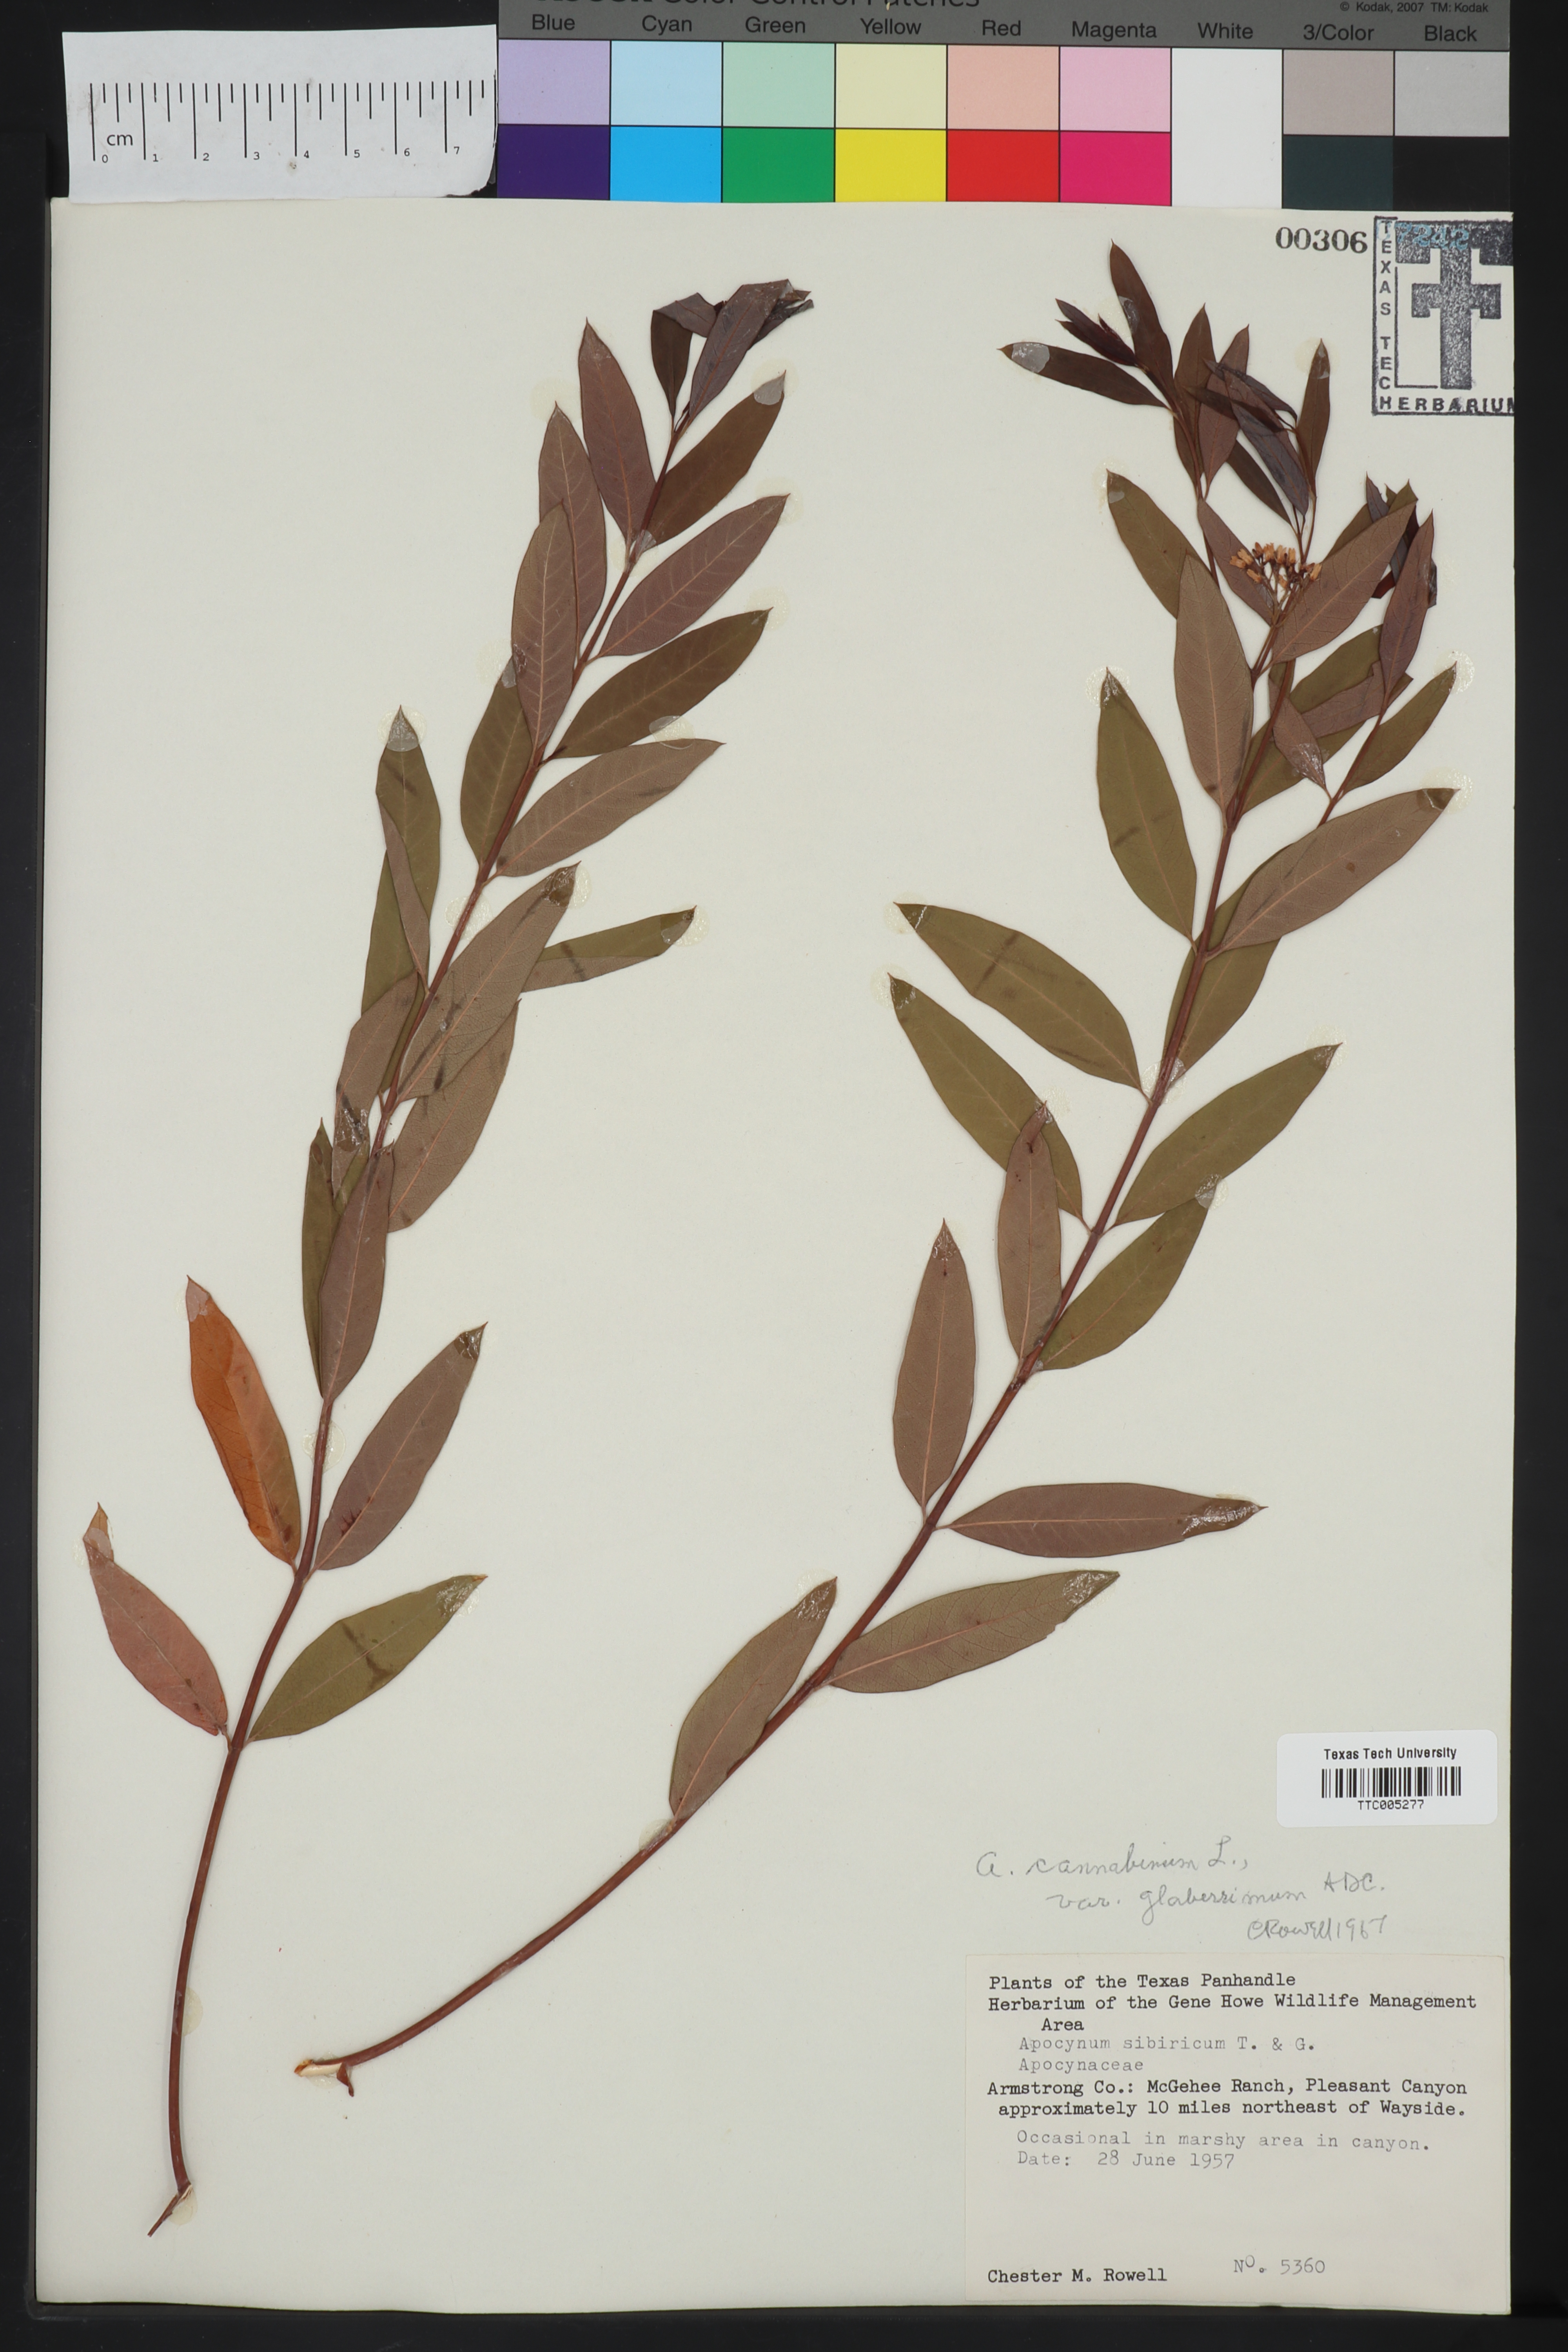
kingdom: Plantae
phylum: Tracheophyta
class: Magnoliopsida
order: Gentianales
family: Apocynaceae
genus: Apocynum
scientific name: Apocynum cannabinum
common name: Hemp dogbane
